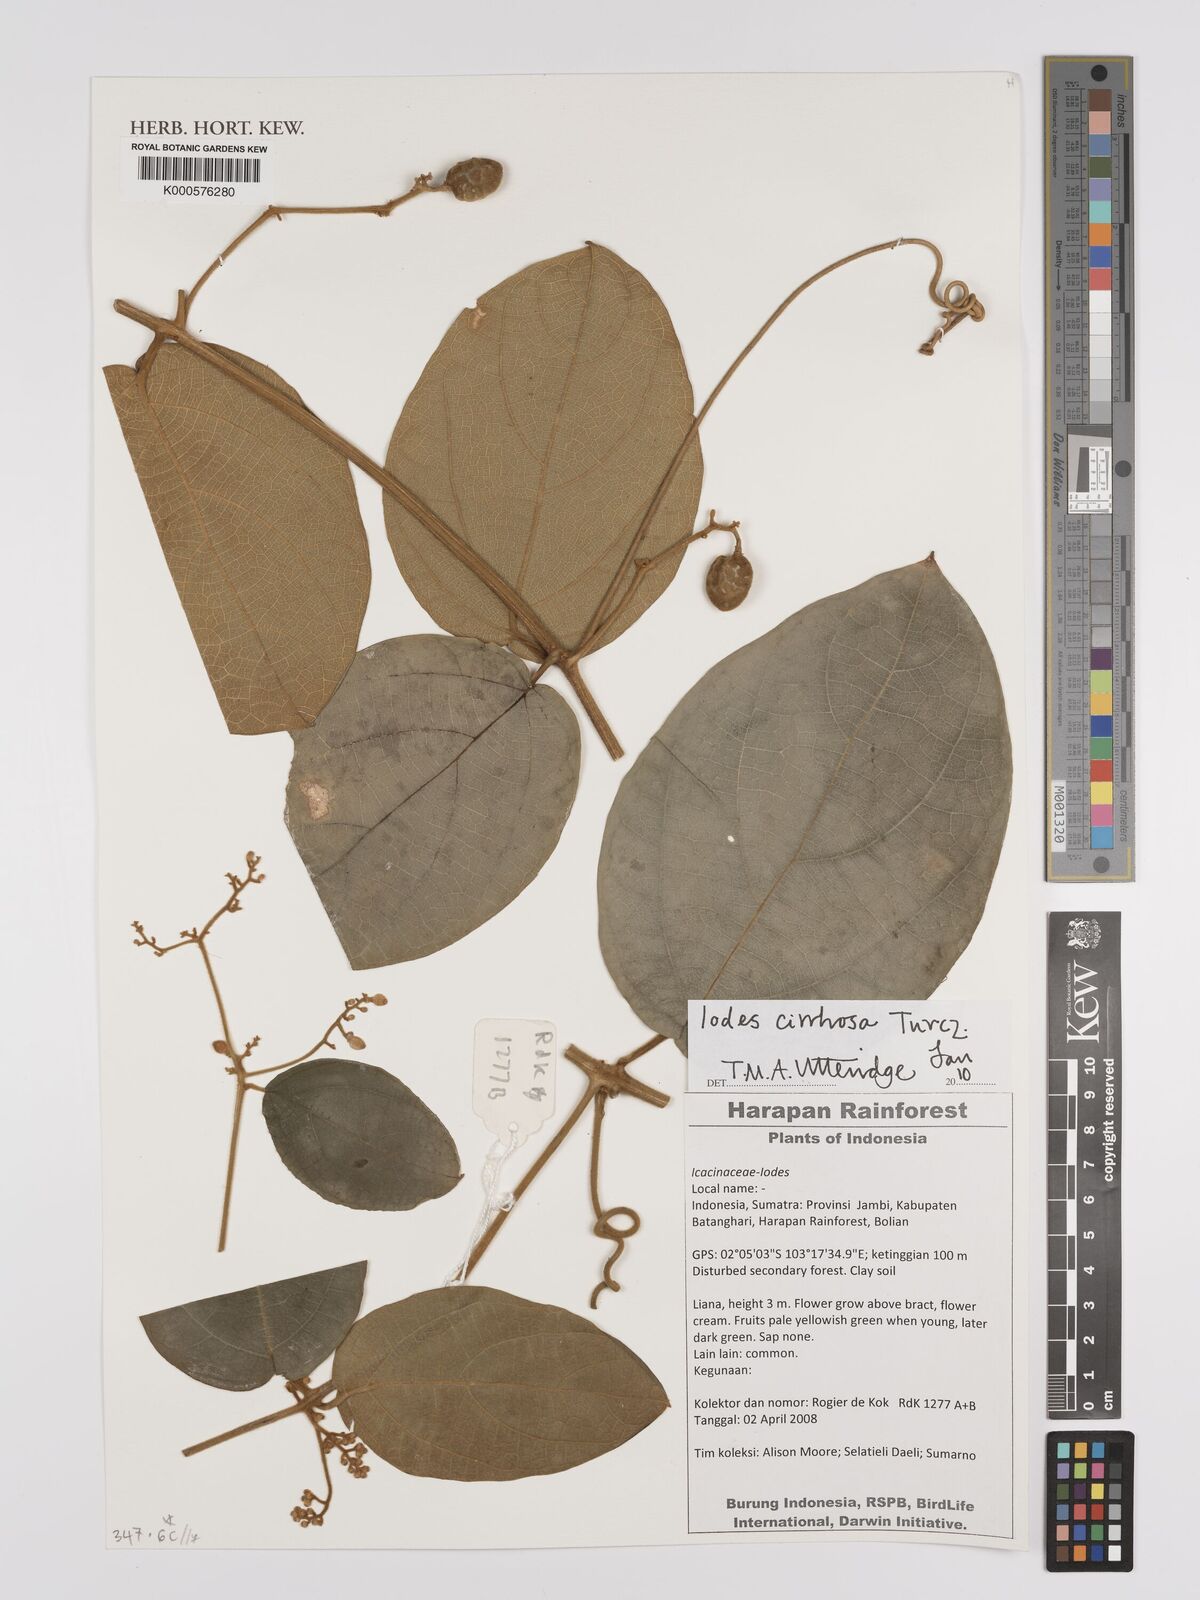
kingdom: Plantae
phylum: Tracheophyta
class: Magnoliopsida
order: Icacinales
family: Icacinaceae
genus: Iodes
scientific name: Iodes cirrhosa
